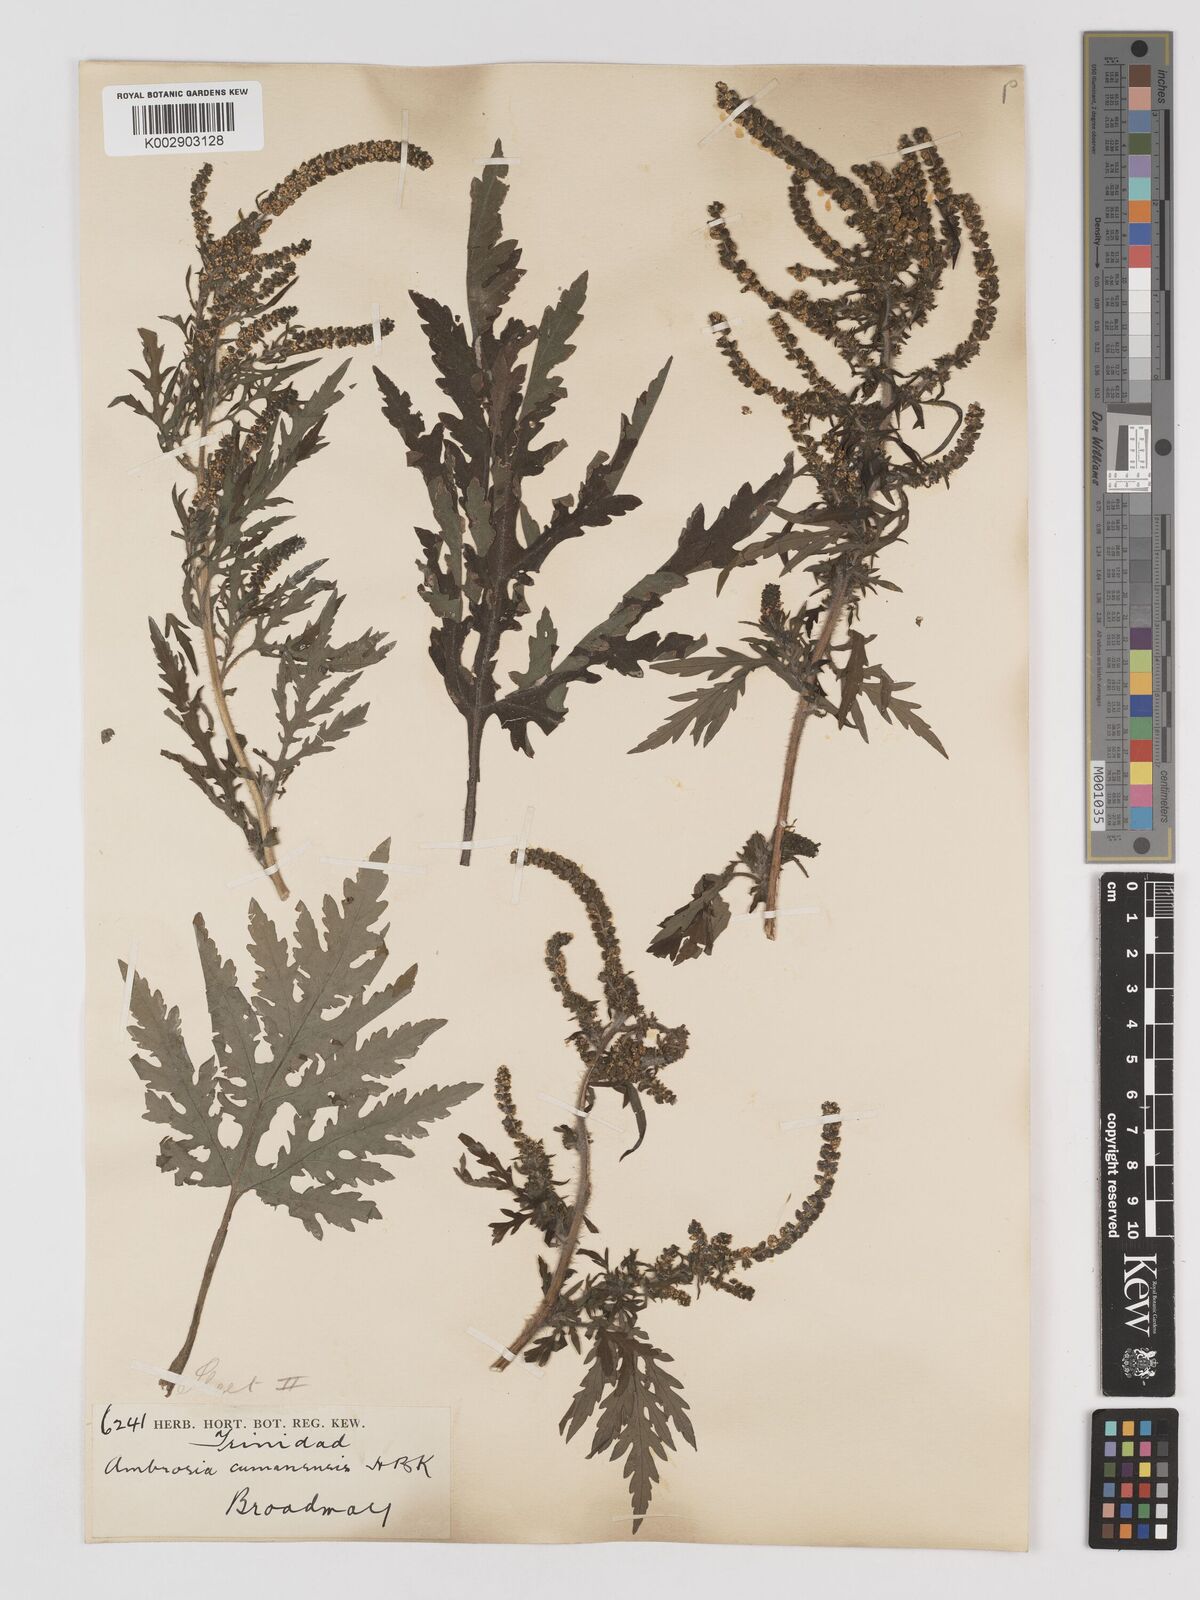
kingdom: Plantae
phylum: Tracheophyta
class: Magnoliopsida
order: Asterales
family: Asteraceae
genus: Ambrosia
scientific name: Ambrosia cumanensis
